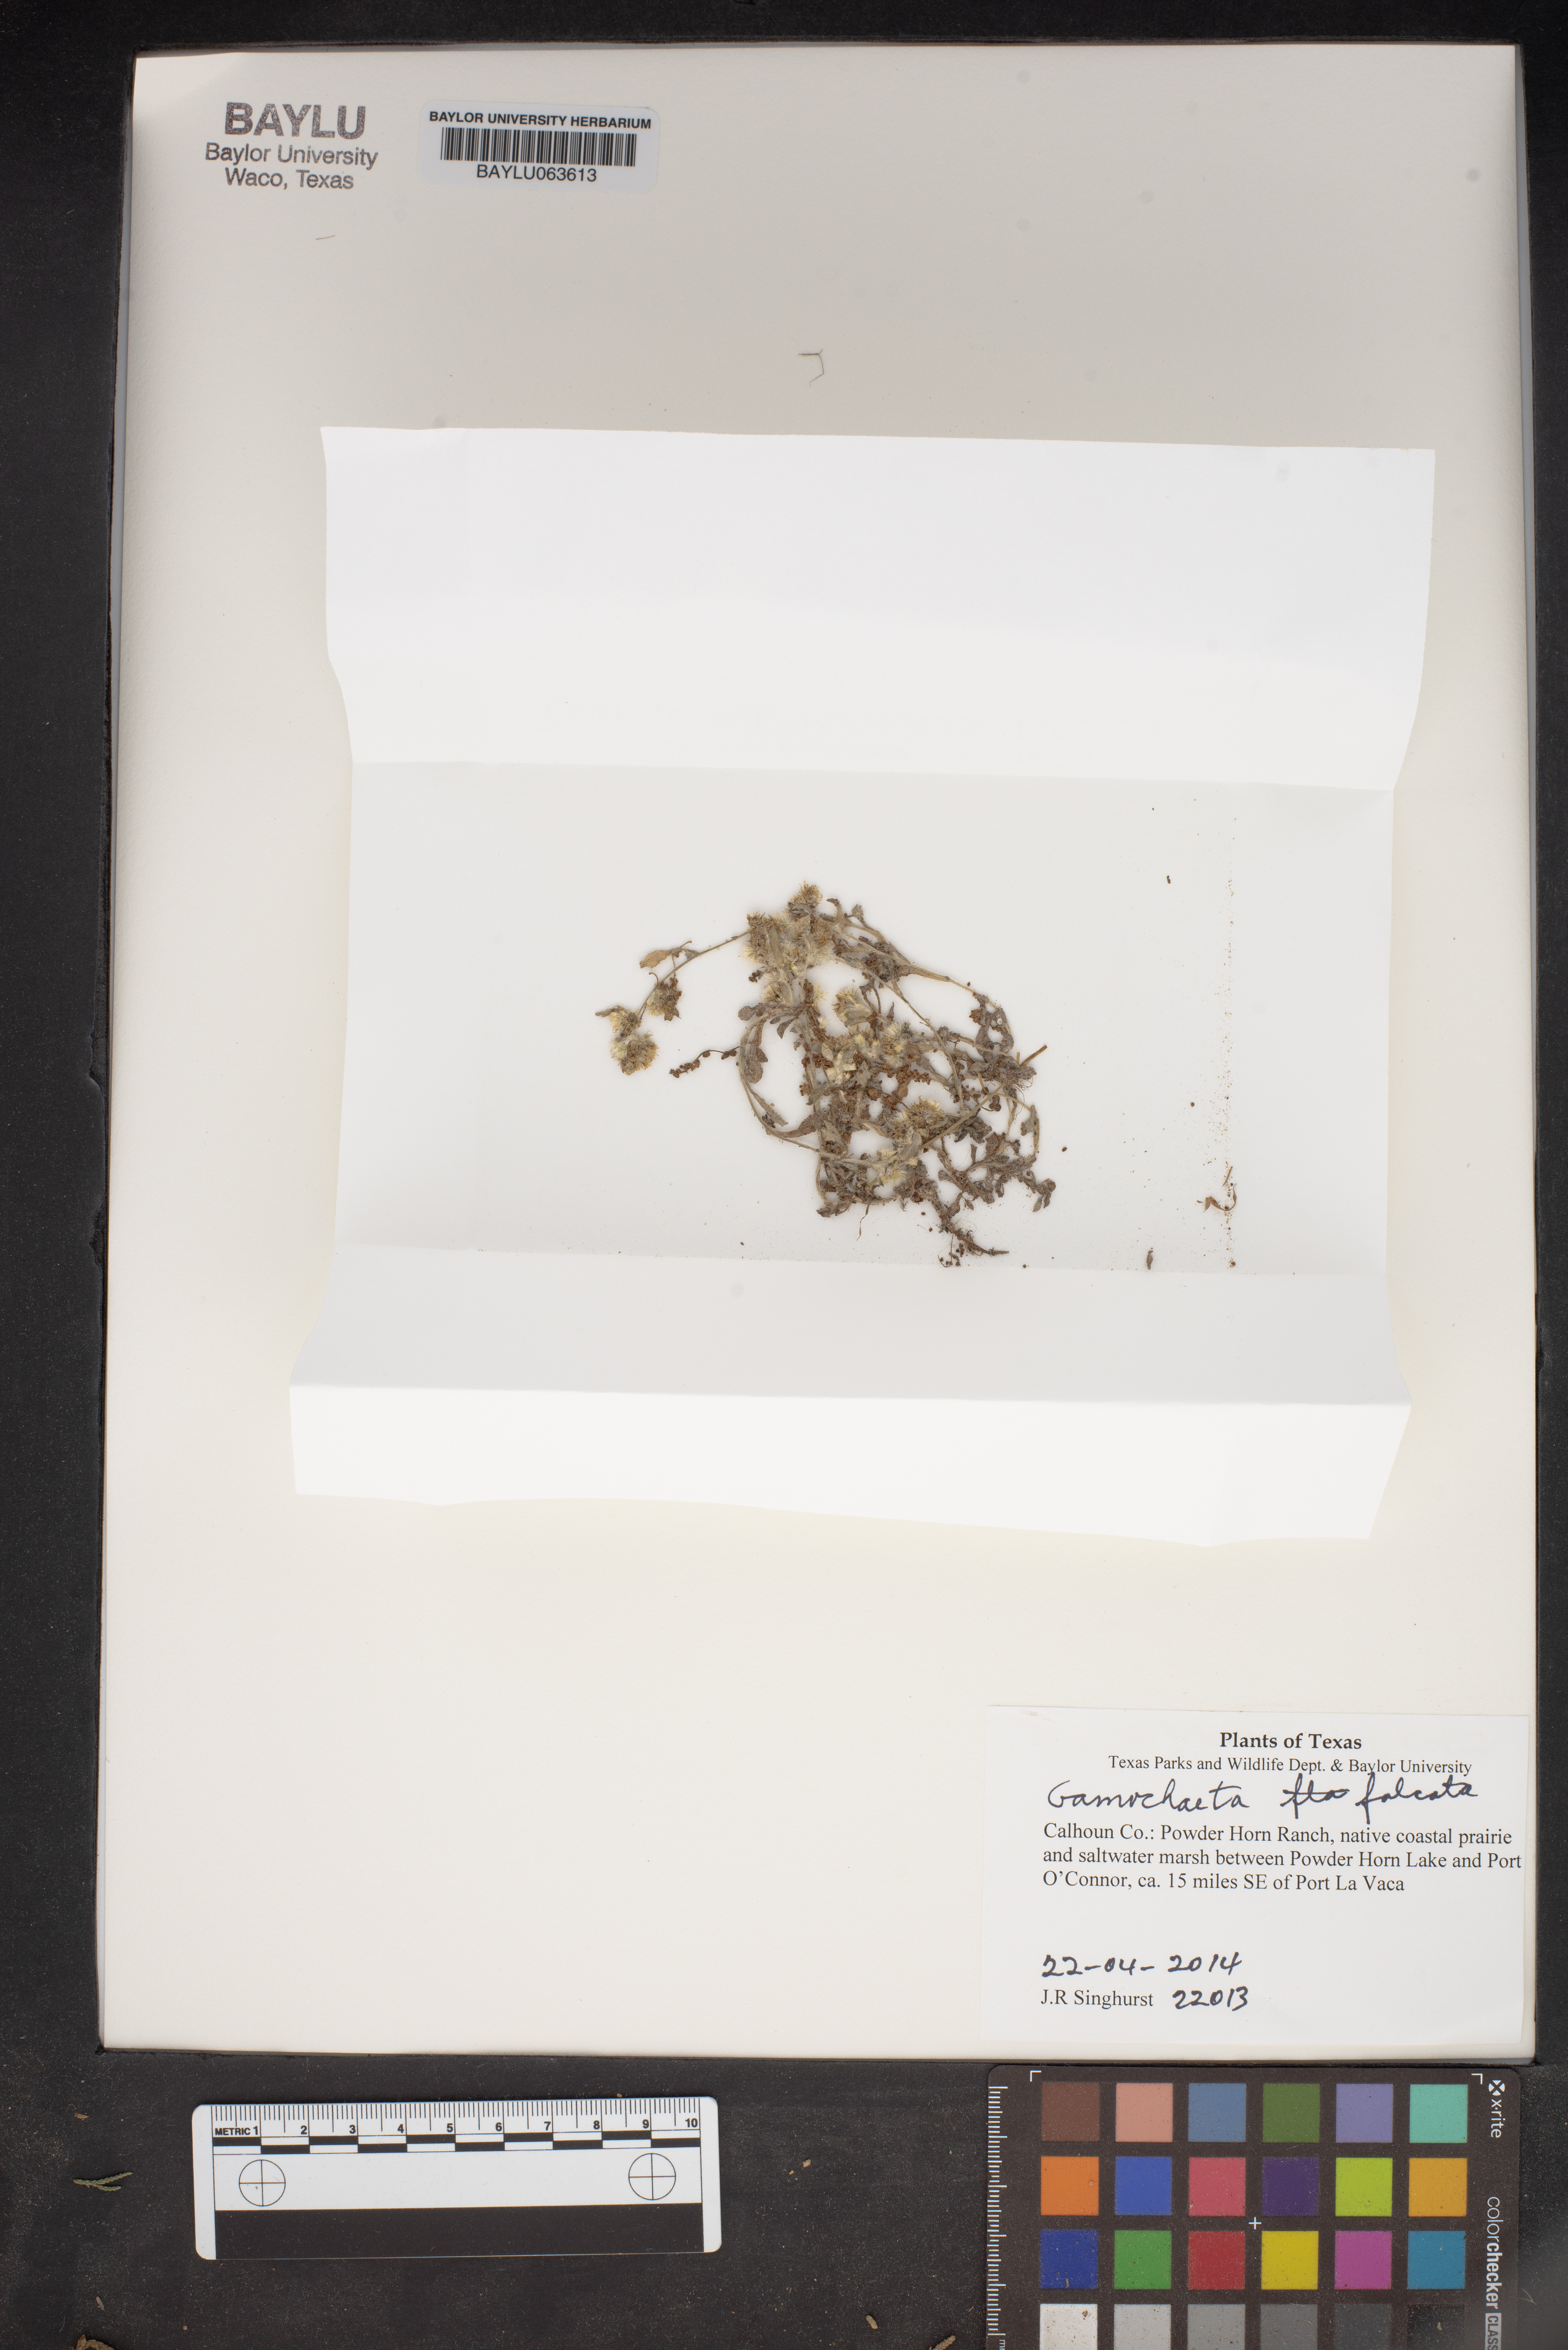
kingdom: Plantae
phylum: Tracheophyta
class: Magnoliopsida
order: Asterales
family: Asteraceae
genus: Gamochaeta
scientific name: Gamochaeta falcata
